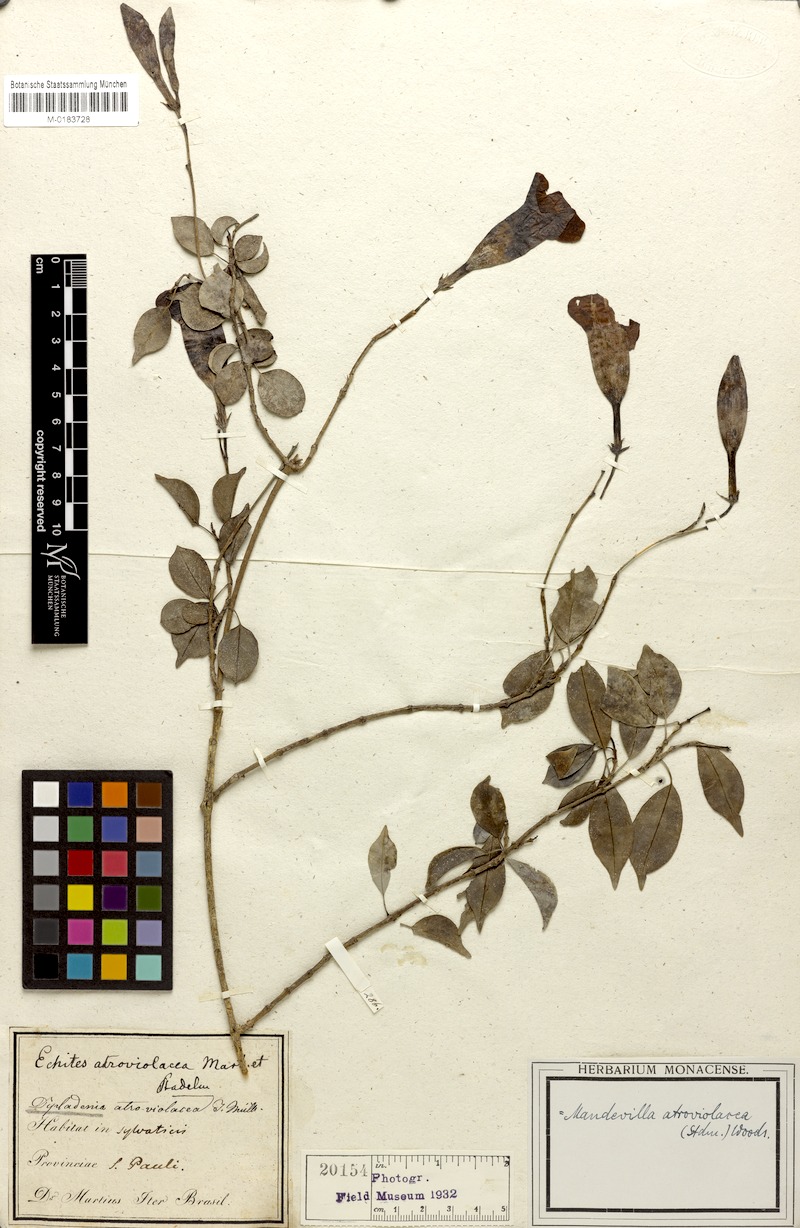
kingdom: Plantae
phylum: Tracheophyta
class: Magnoliopsida
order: Gentianales
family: Apocynaceae
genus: Mandevilla
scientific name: Mandevilla atroviolacea
